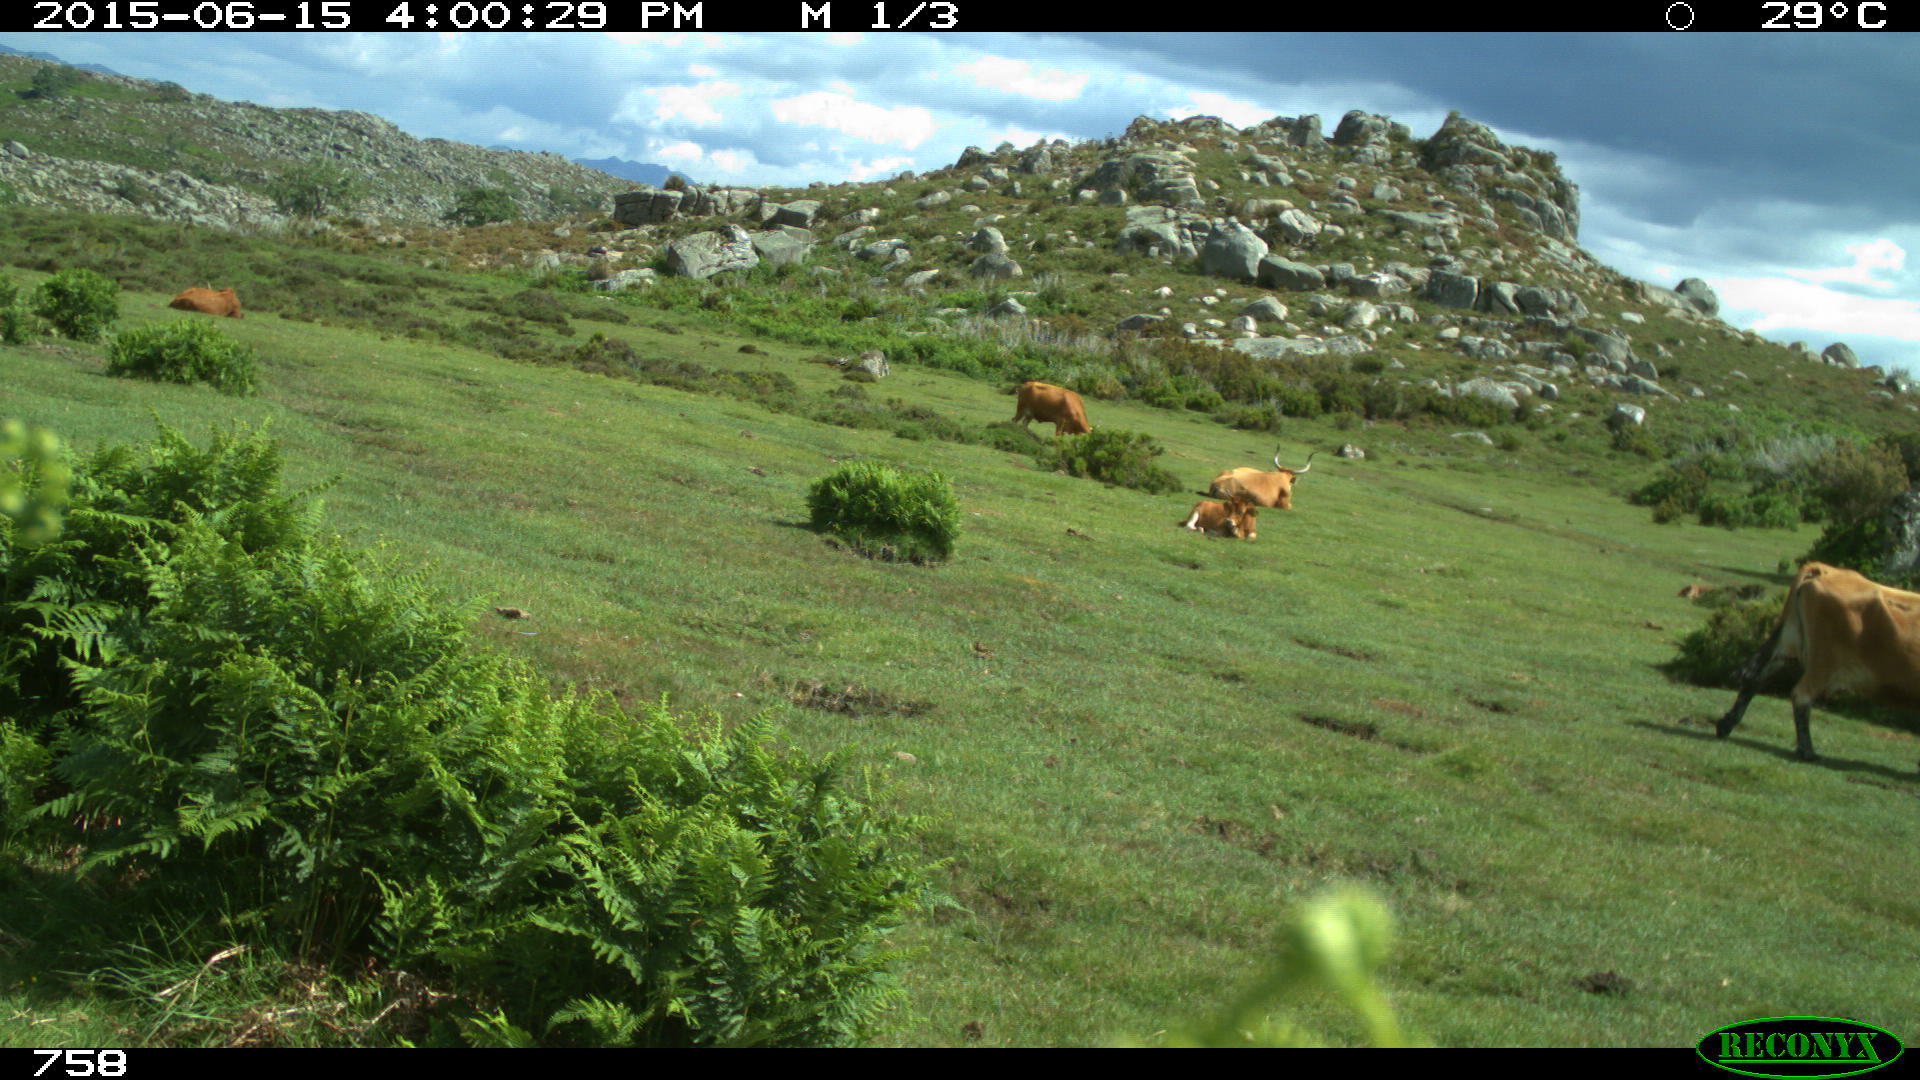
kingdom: Animalia
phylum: Chordata
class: Mammalia
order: Artiodactyla
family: Bovidae
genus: Bos
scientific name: Bos taurus
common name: Domesticated cattle
